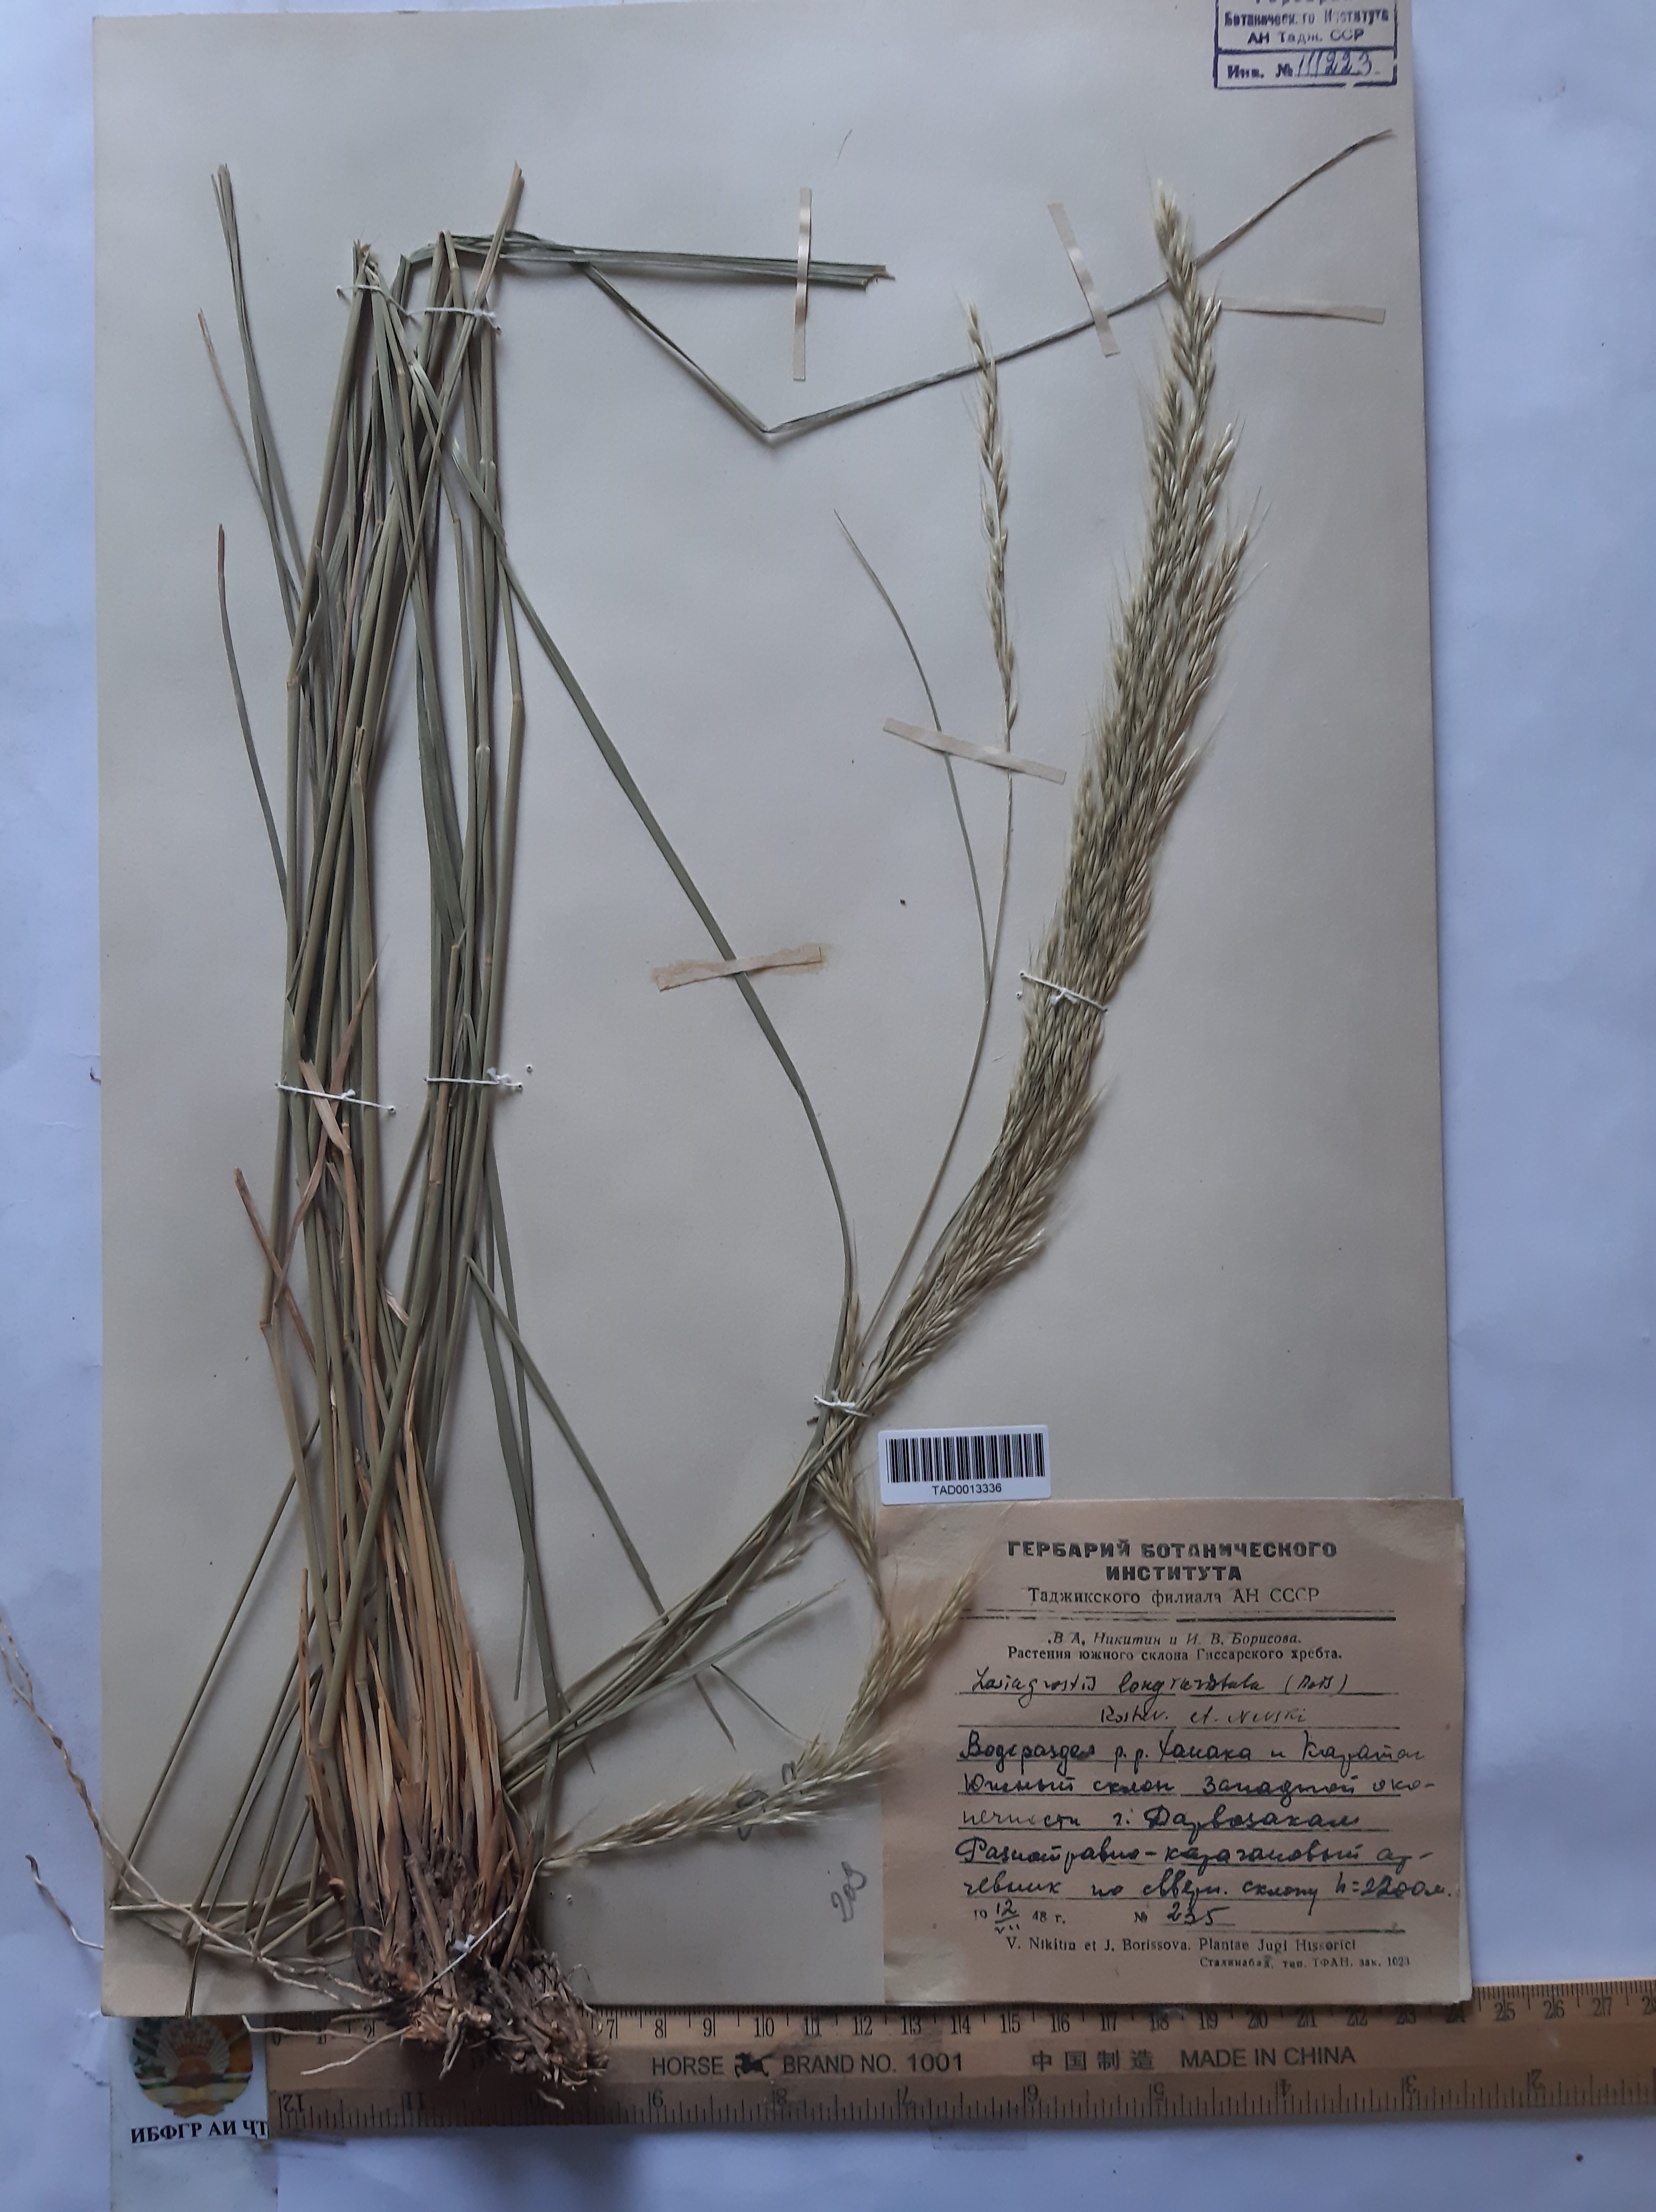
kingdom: Plantae
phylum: Tracheophyta
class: Liliopsida
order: Poales
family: Poaceae
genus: Achnatherum
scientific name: Achnatherum turcomanicum
